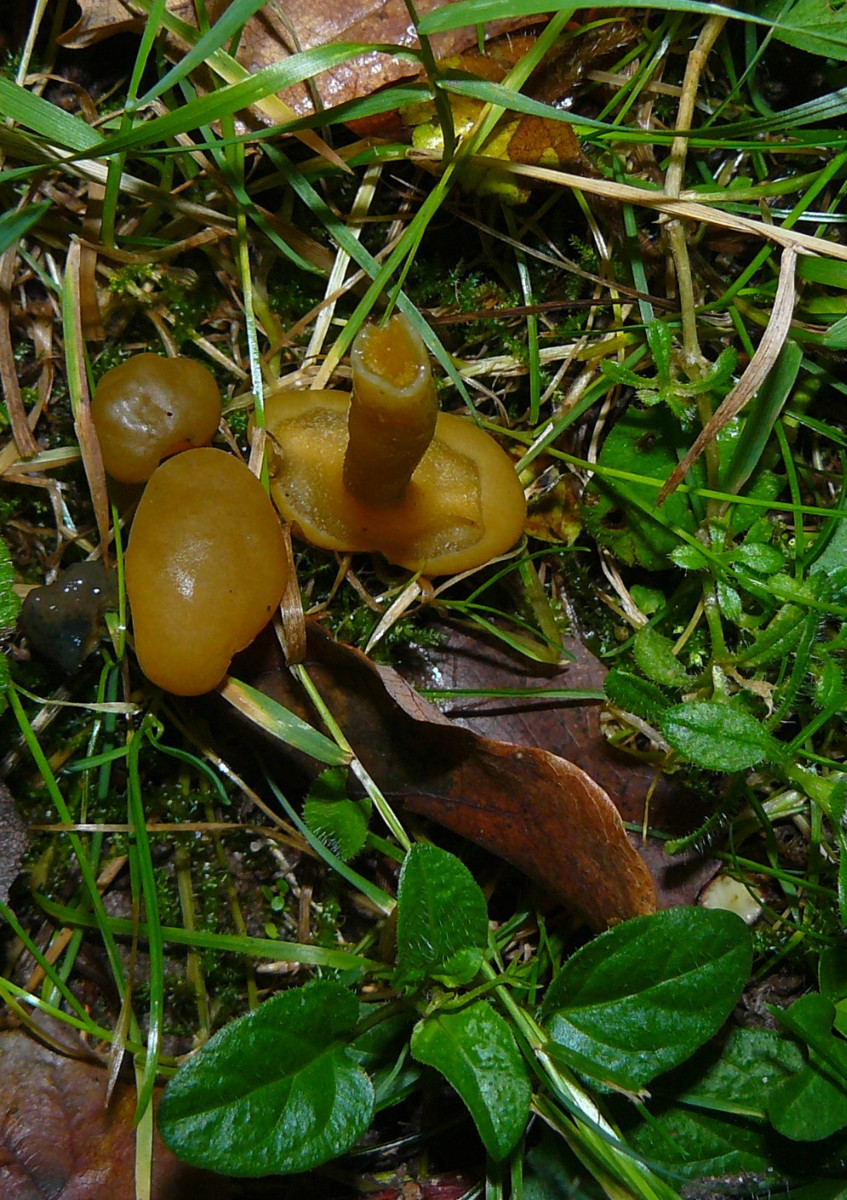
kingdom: Fungi
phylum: Ascomycota
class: Leotiomycetes
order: Leotiales
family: Leotiaceae
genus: Leotia
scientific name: Leotia lubrica
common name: ravsvamp
